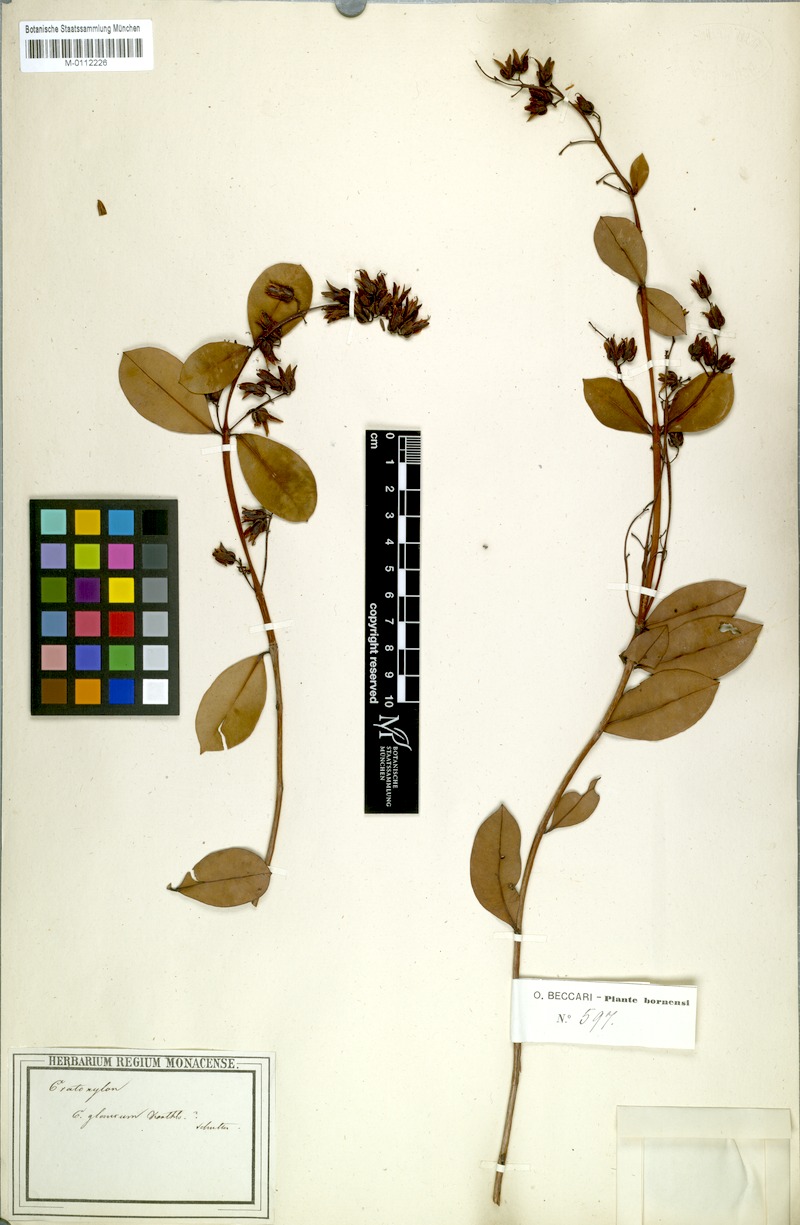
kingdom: Plantae
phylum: Tracheophyta
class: Magnoliopsida
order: Malpighiales
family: Hypericaceae
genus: Cratoxylum
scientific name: Cratoxylum glaucum
